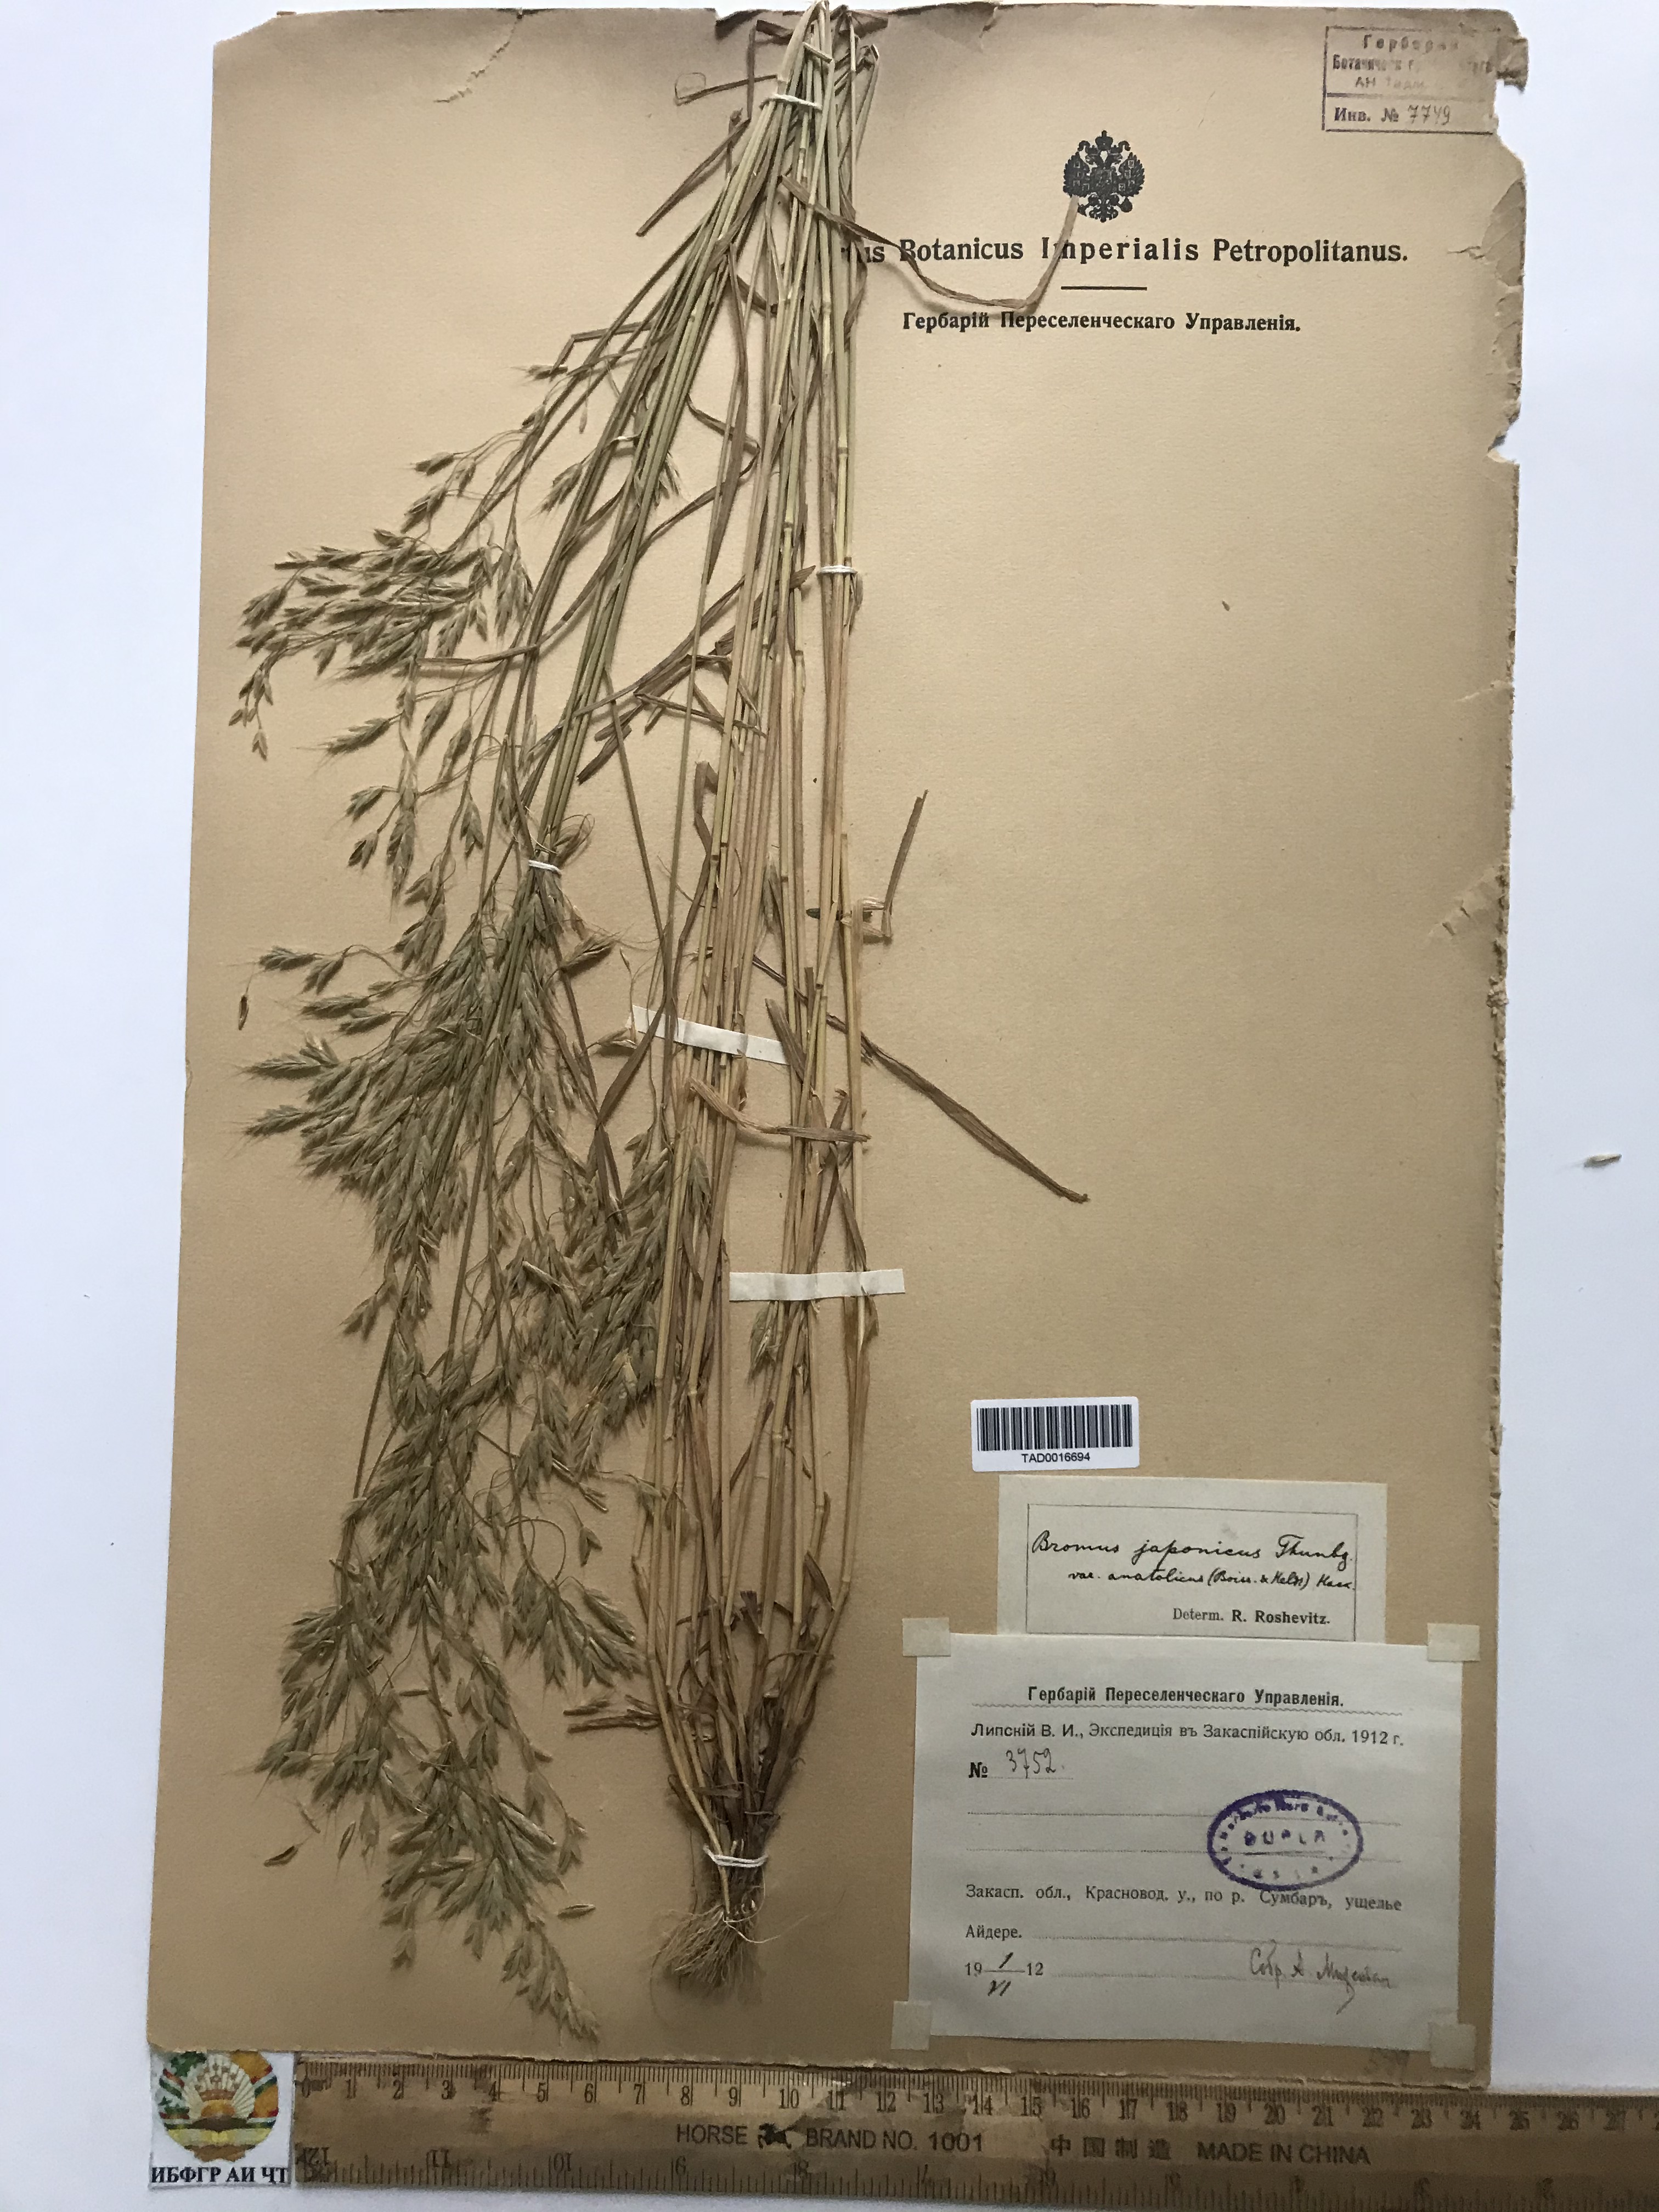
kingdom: Plantae
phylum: Tracheophyta
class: Liliopsida
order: Poales
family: Poaceae
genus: Bromus
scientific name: Bromus japonicus
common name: Japanese brome
